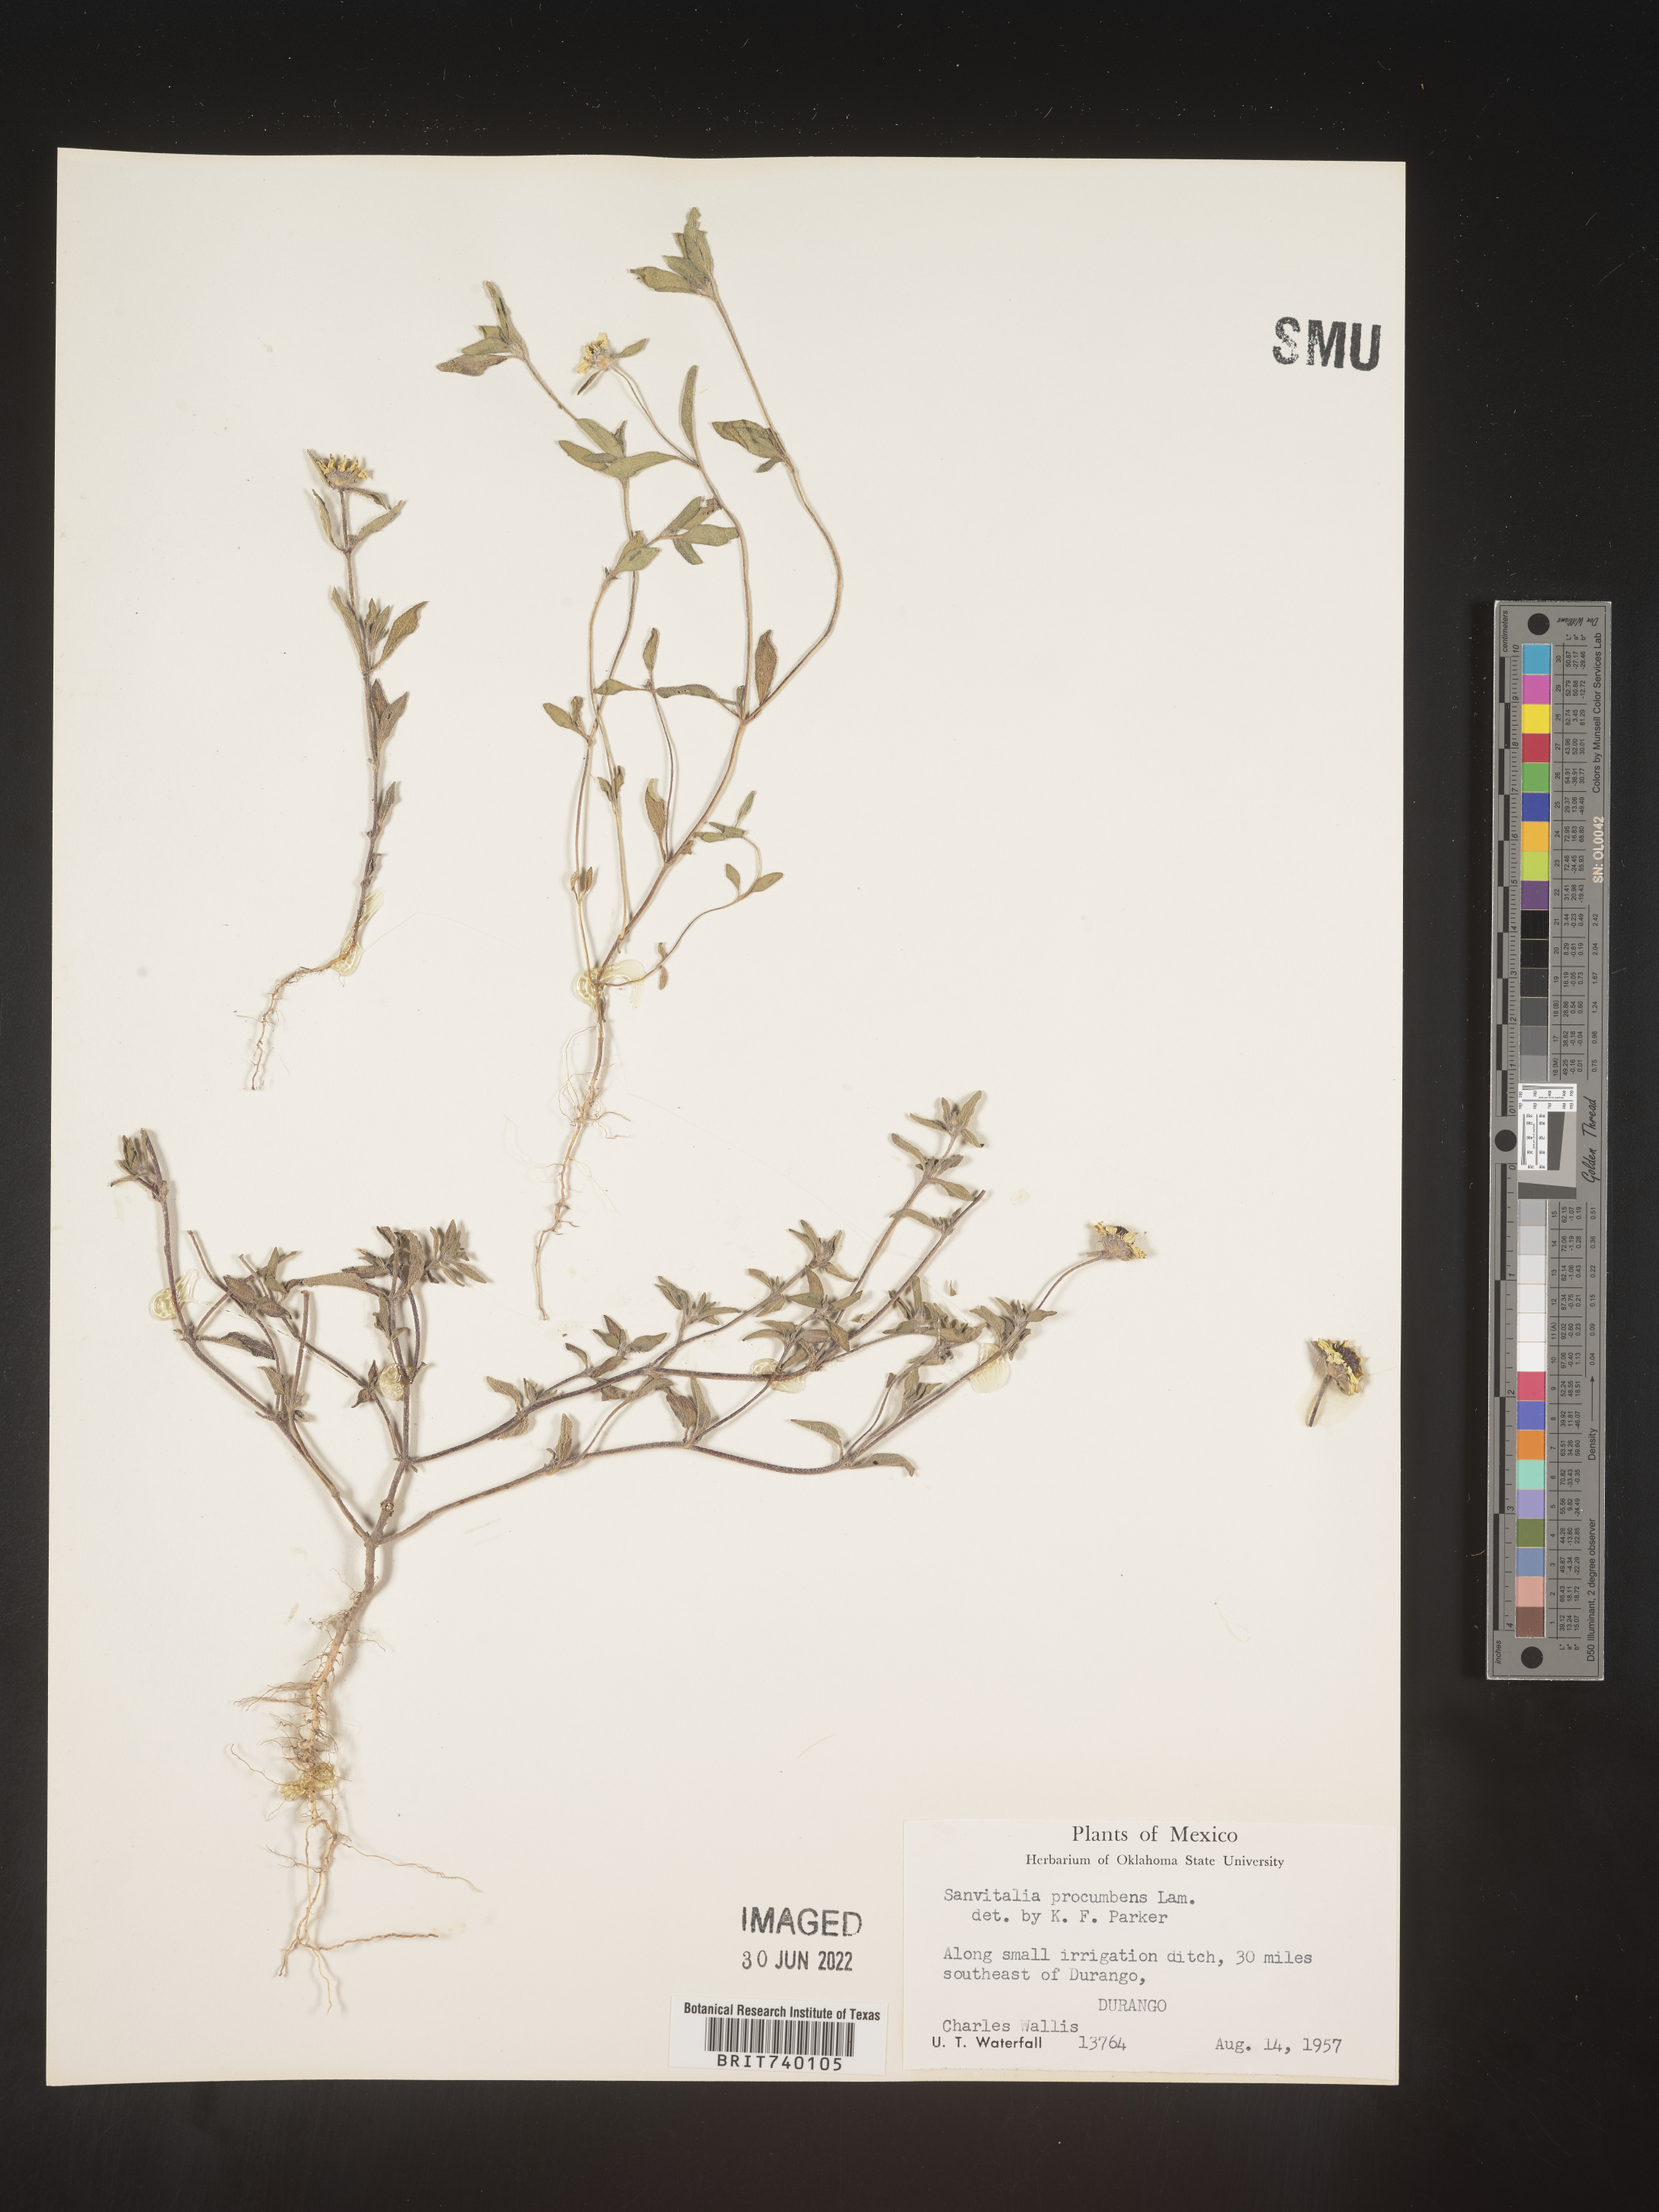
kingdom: Plantae
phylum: Tracheophyta
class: Magnoliopsida
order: Asterales
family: Asteraceae
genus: Sanvitalia
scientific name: Sanvitalia
